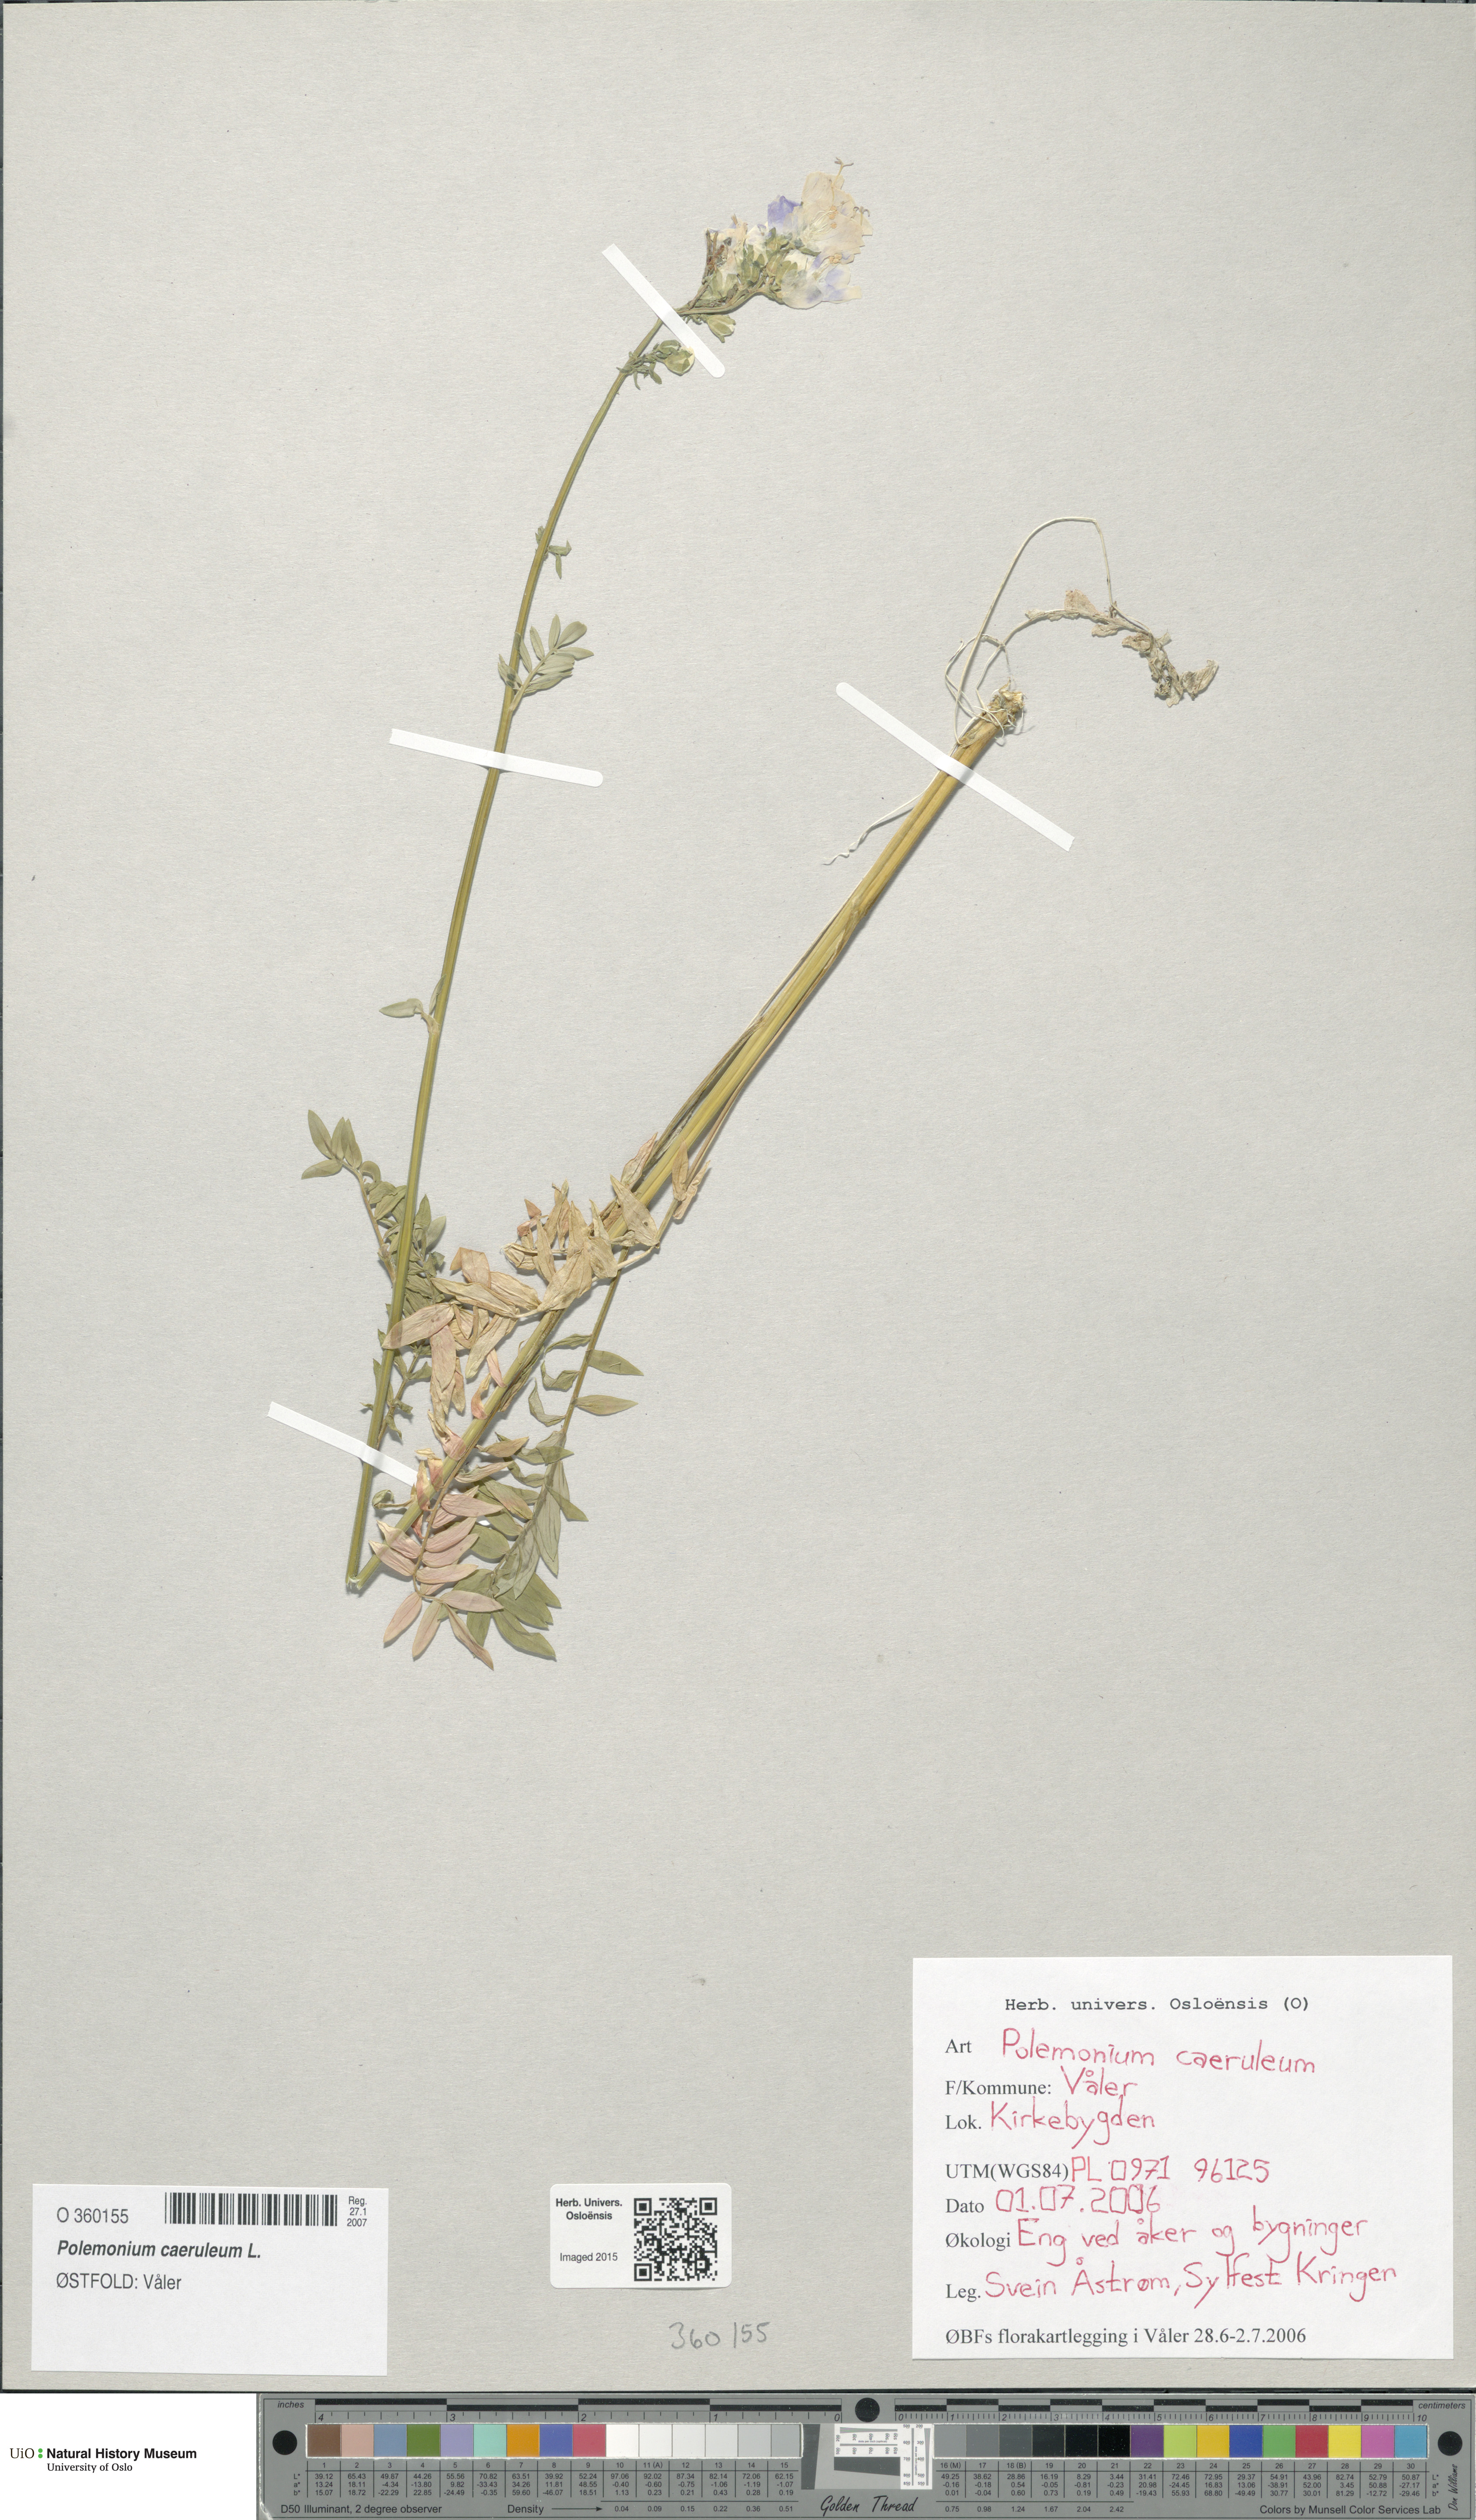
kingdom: Plantae
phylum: Tracheophyta
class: Magnoliopsida
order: Ericales
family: Polemoniaceae
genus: Polemonium
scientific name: Polemonium caeruleum
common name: Jacob's-ladder
